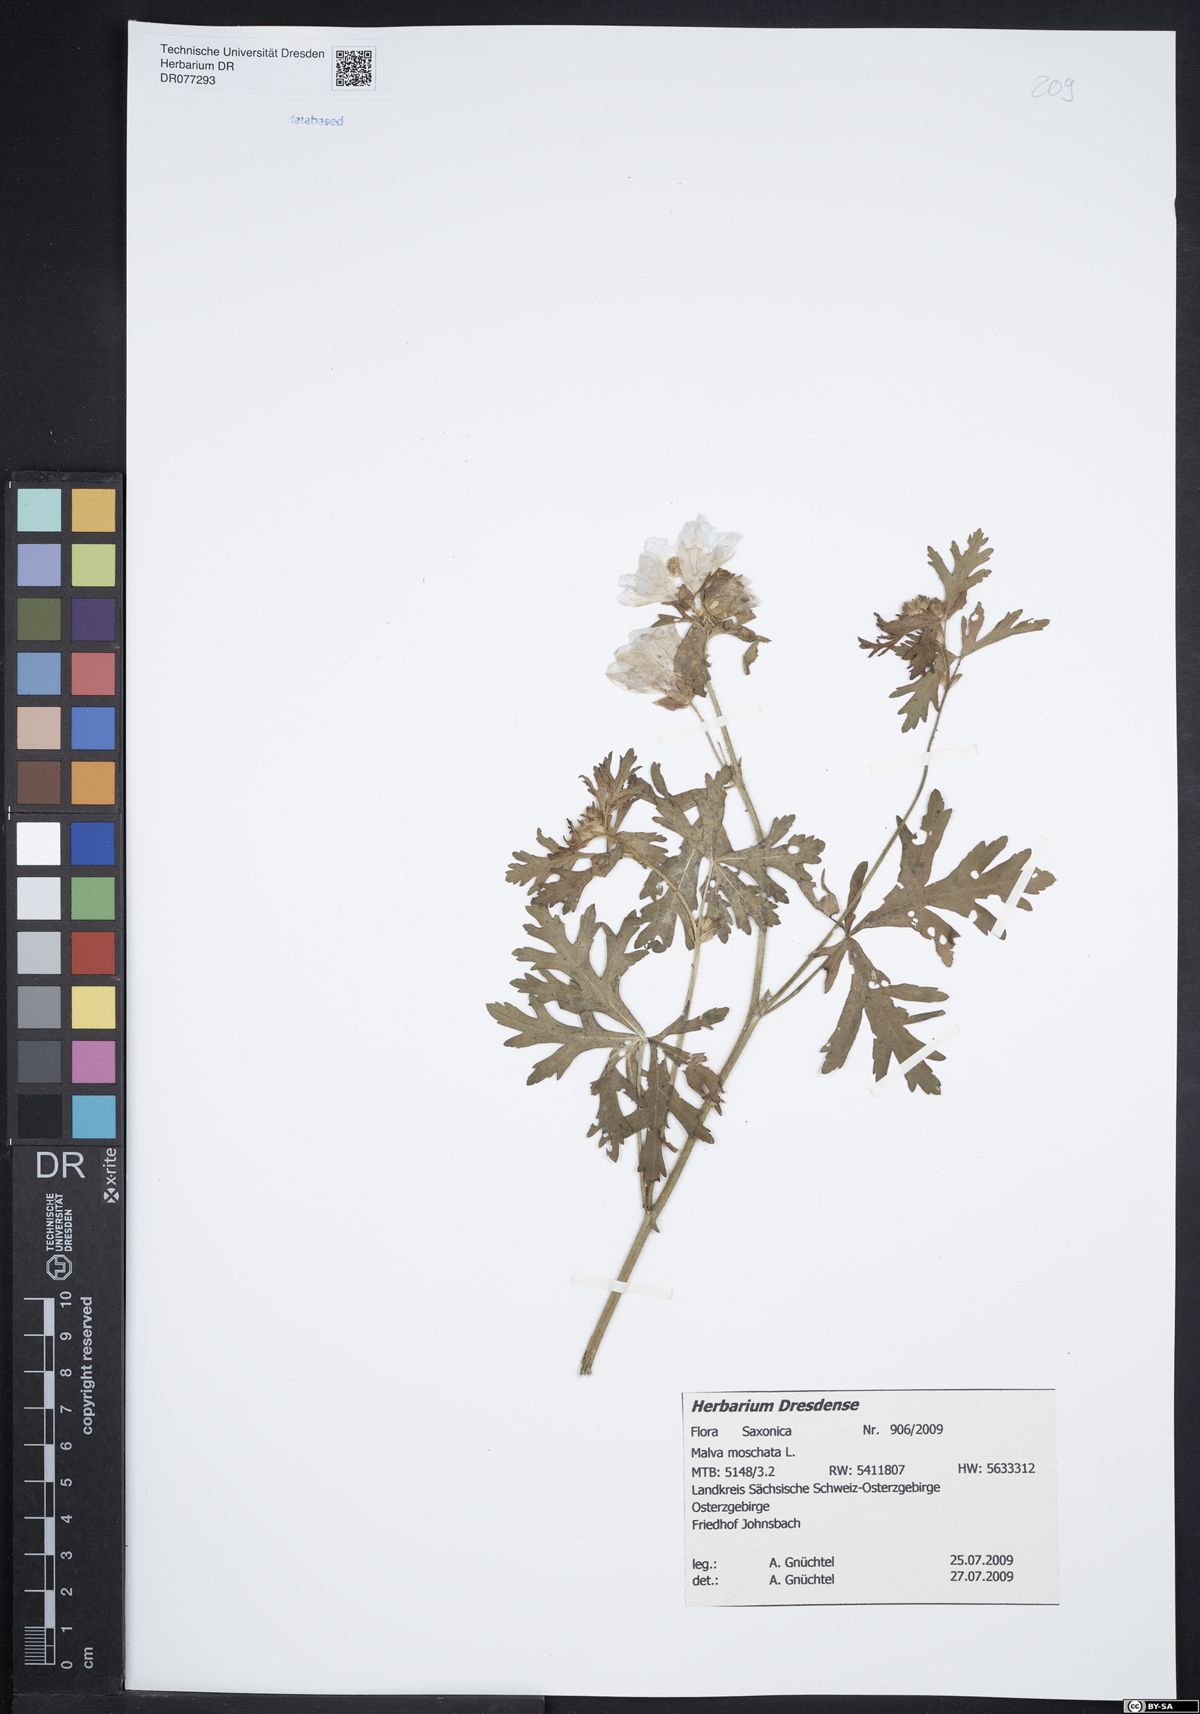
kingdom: Plantae
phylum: Tracheophyta
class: Magnoliopsida
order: Malvales
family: Malvaceae
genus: Malva
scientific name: Malva moschata
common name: Musk mallow
